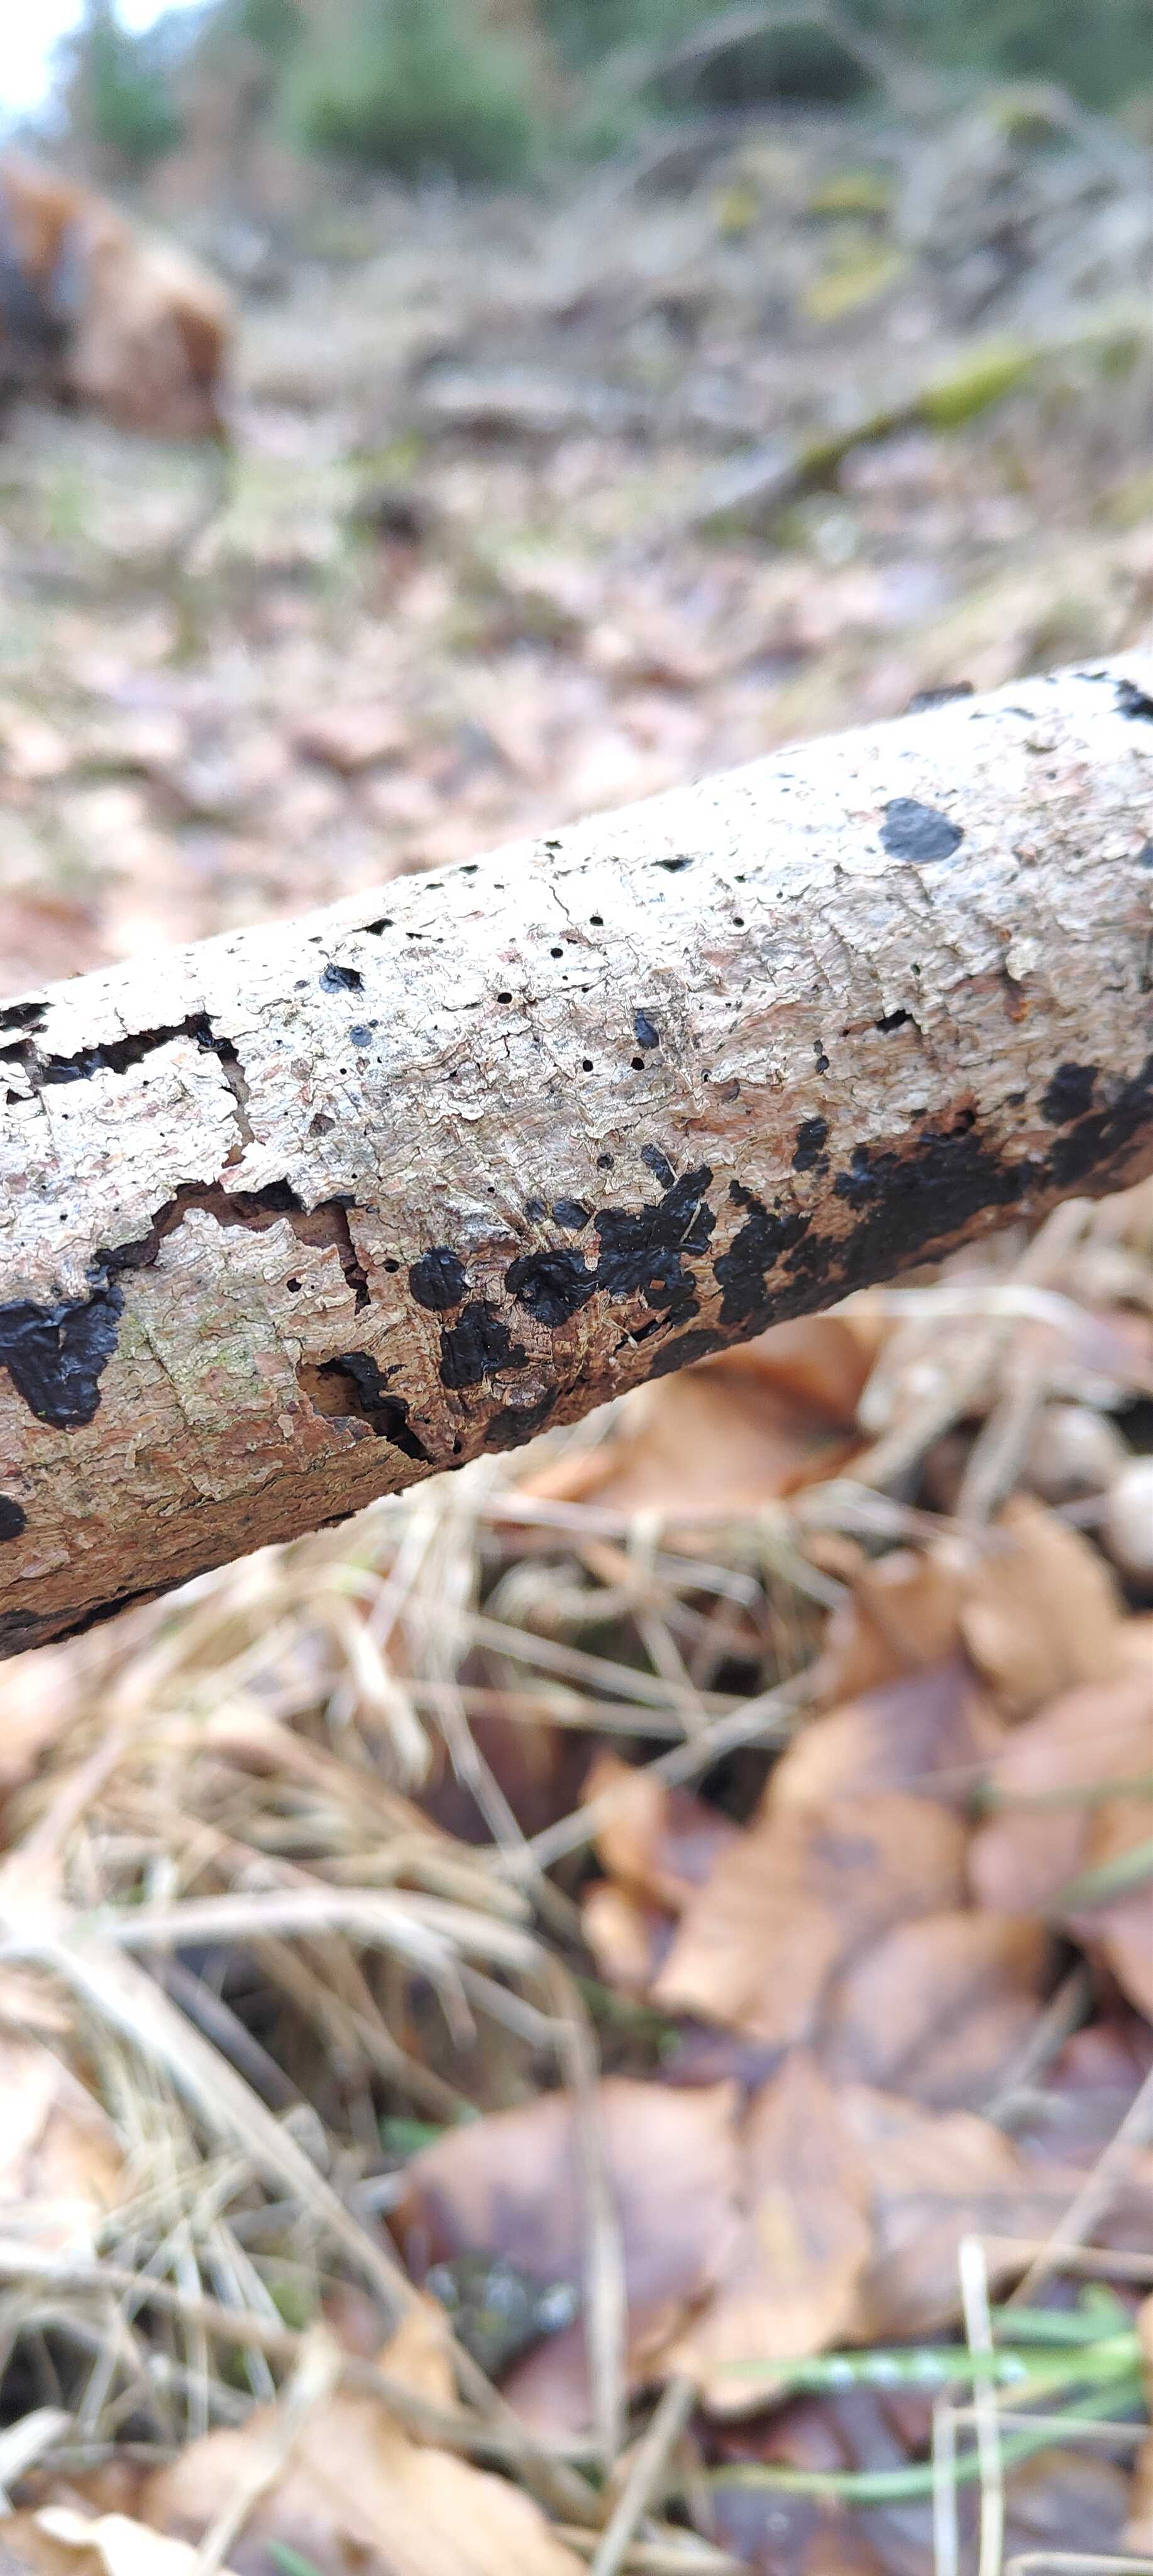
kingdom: Fungi
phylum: Basidiomycota
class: Agaricomycetes
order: Auriculariales
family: Auriculariaceae
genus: Exidia
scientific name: Exidia nigricans
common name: almindelig bævretop
